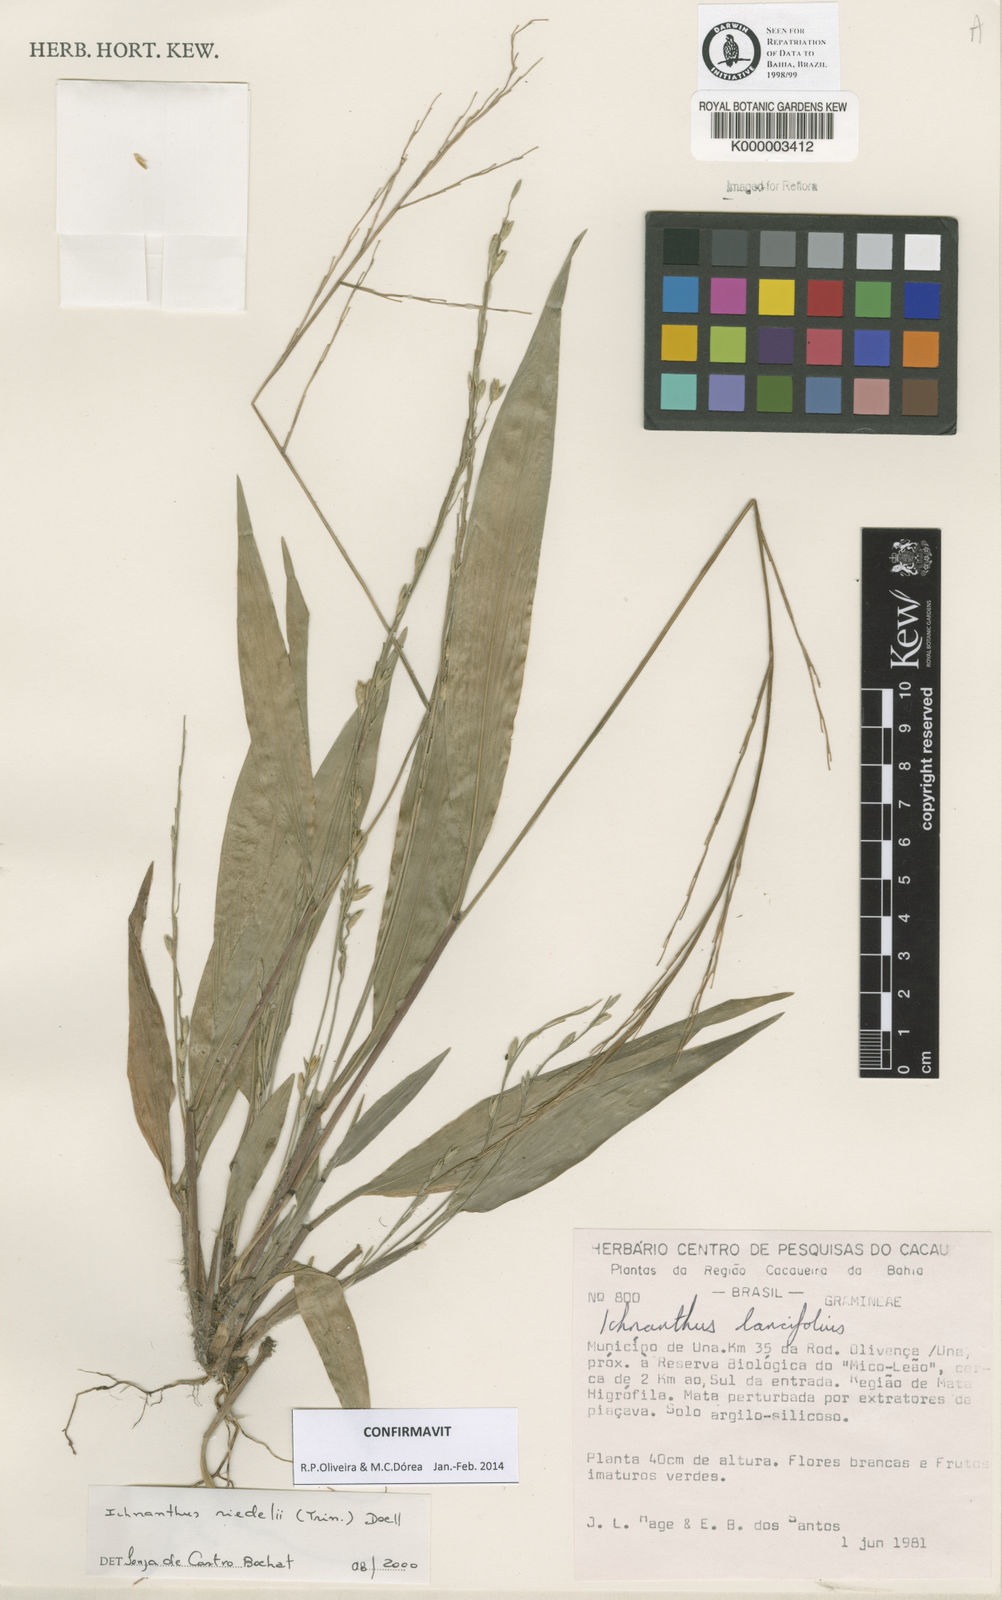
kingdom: Plantae
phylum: Tracheophyta
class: Liliopsida
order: Poales
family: Poaceae
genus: Ichnanthus
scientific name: Ichnanthus
